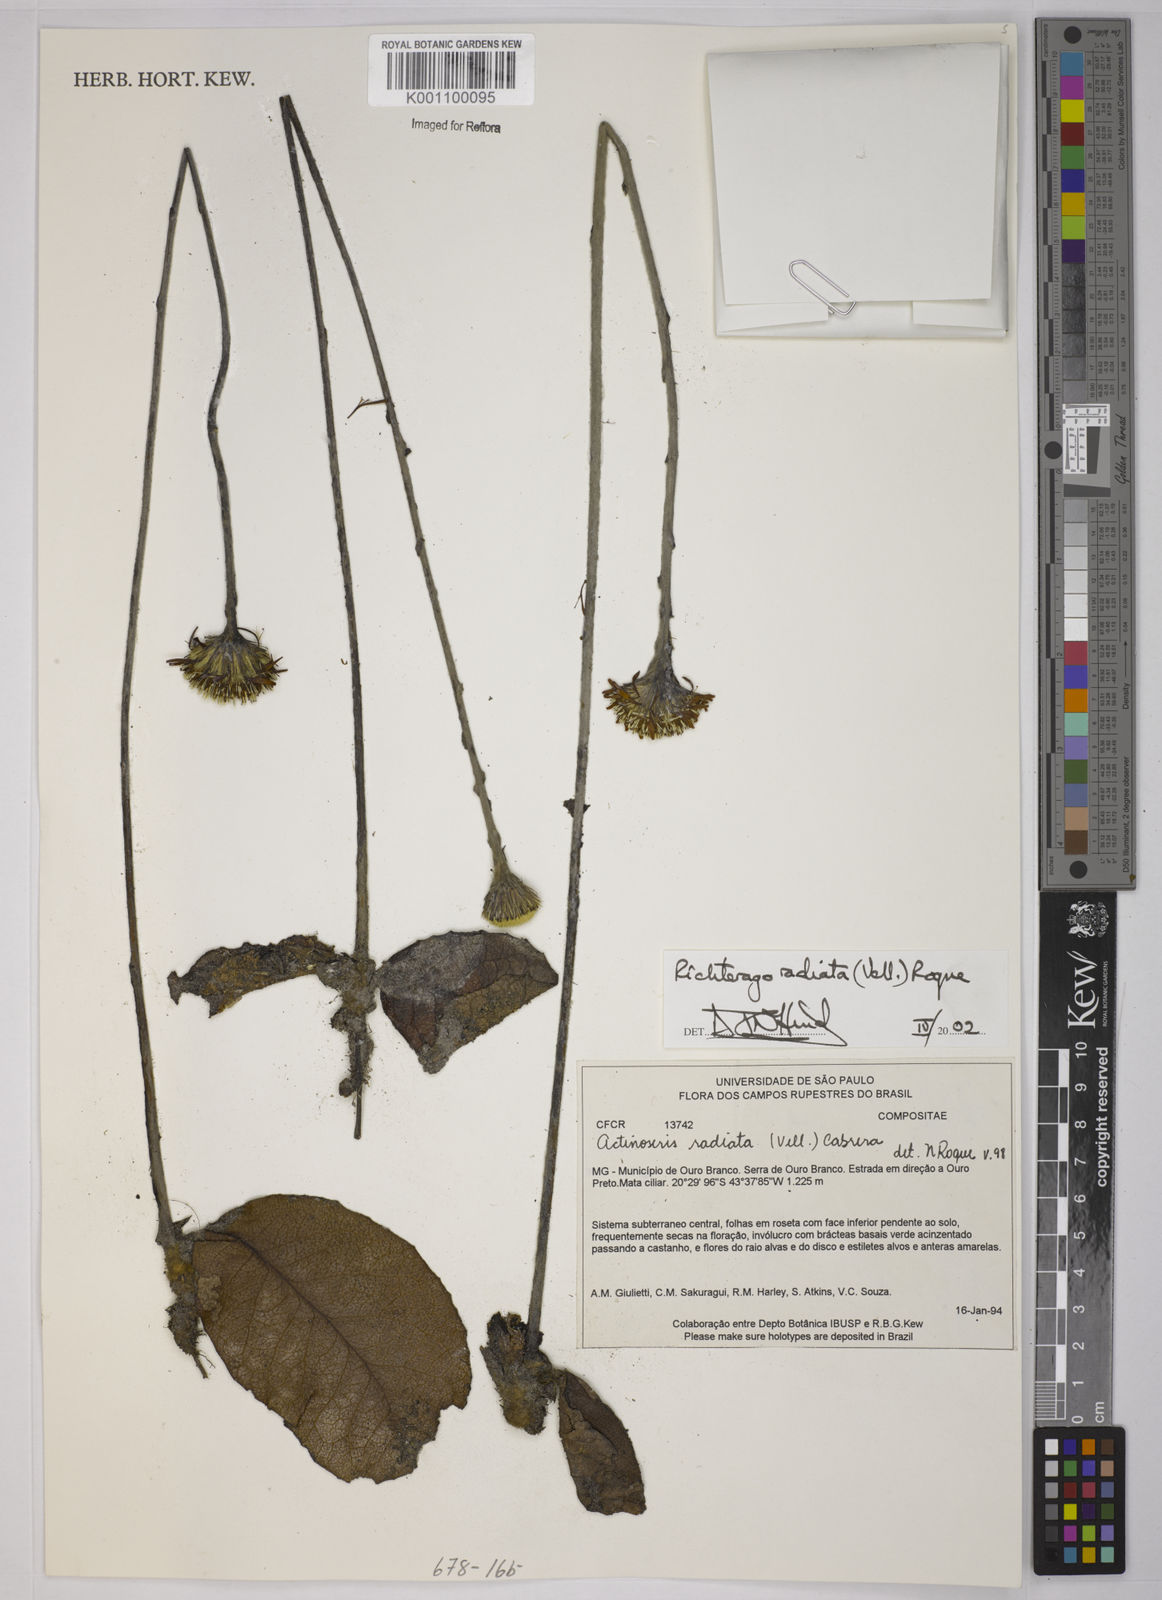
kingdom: Plantae
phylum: Tracheophyta
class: Magnoliopsida
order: Asterales
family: Asteraceae
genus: Richterago
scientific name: Richterago radiata
